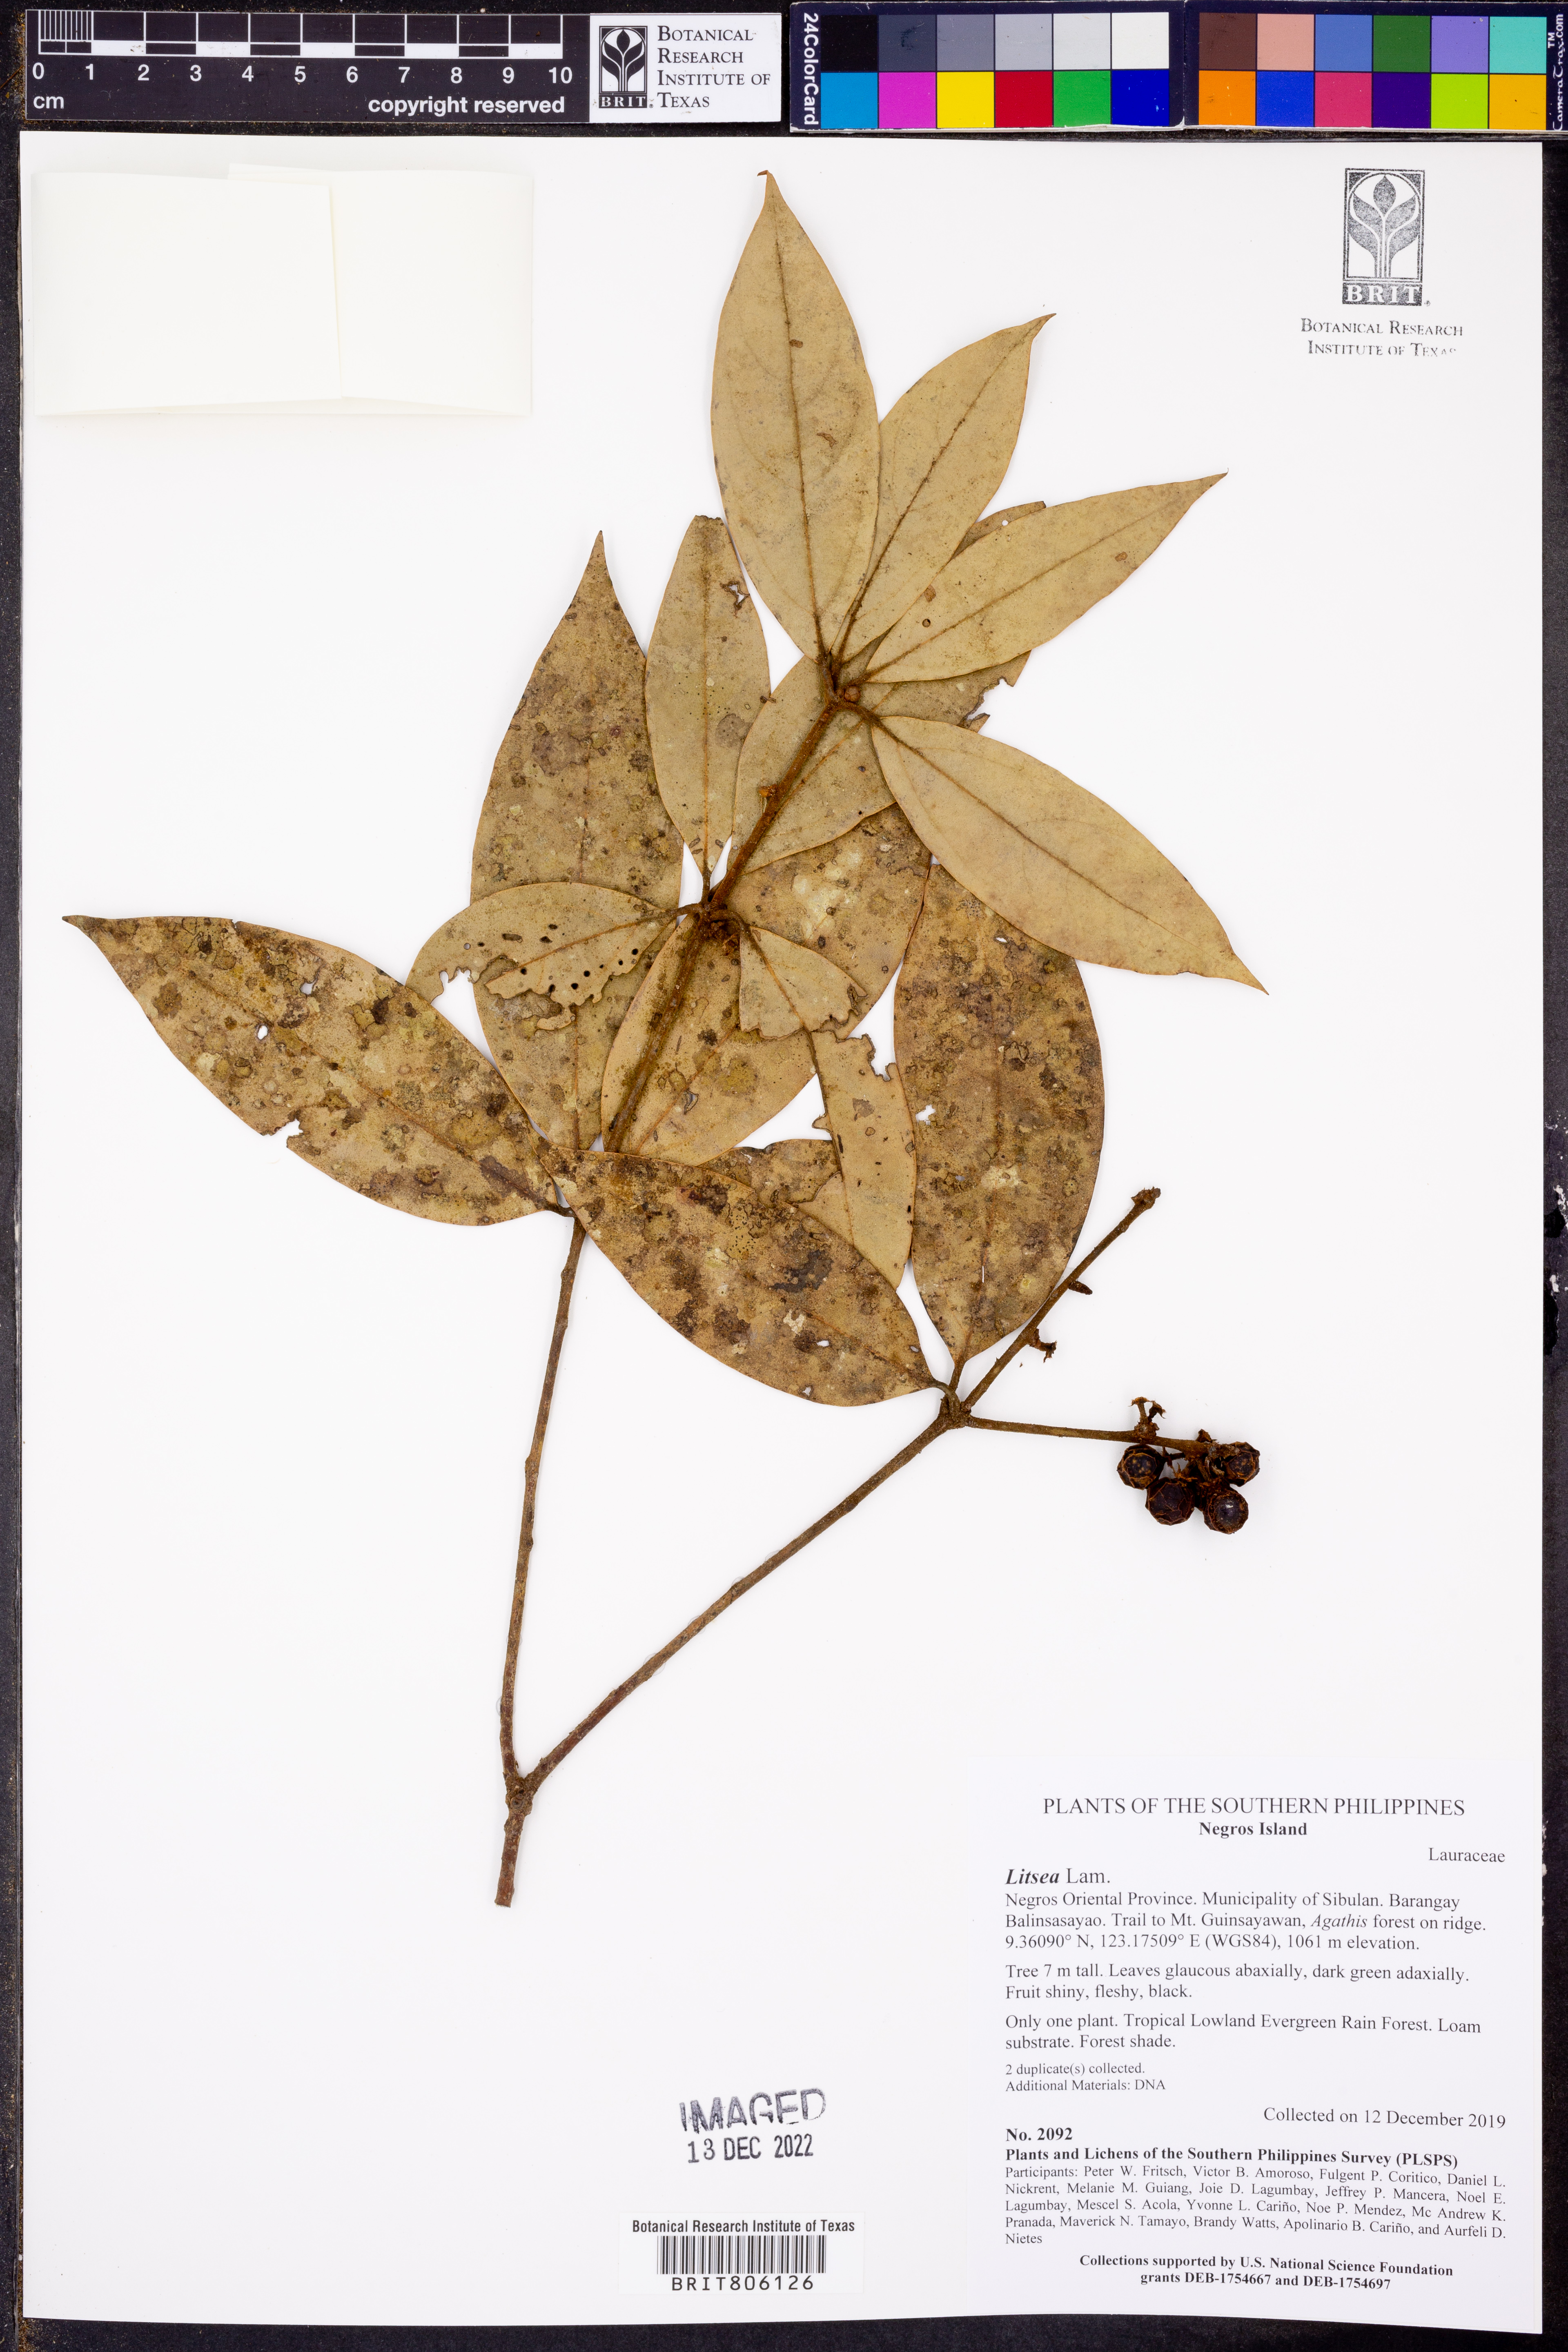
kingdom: Plantae
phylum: Tracheophyta
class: Magnoliopsida
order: Laurales
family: Lauraceae
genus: Litsea
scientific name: Litsea
